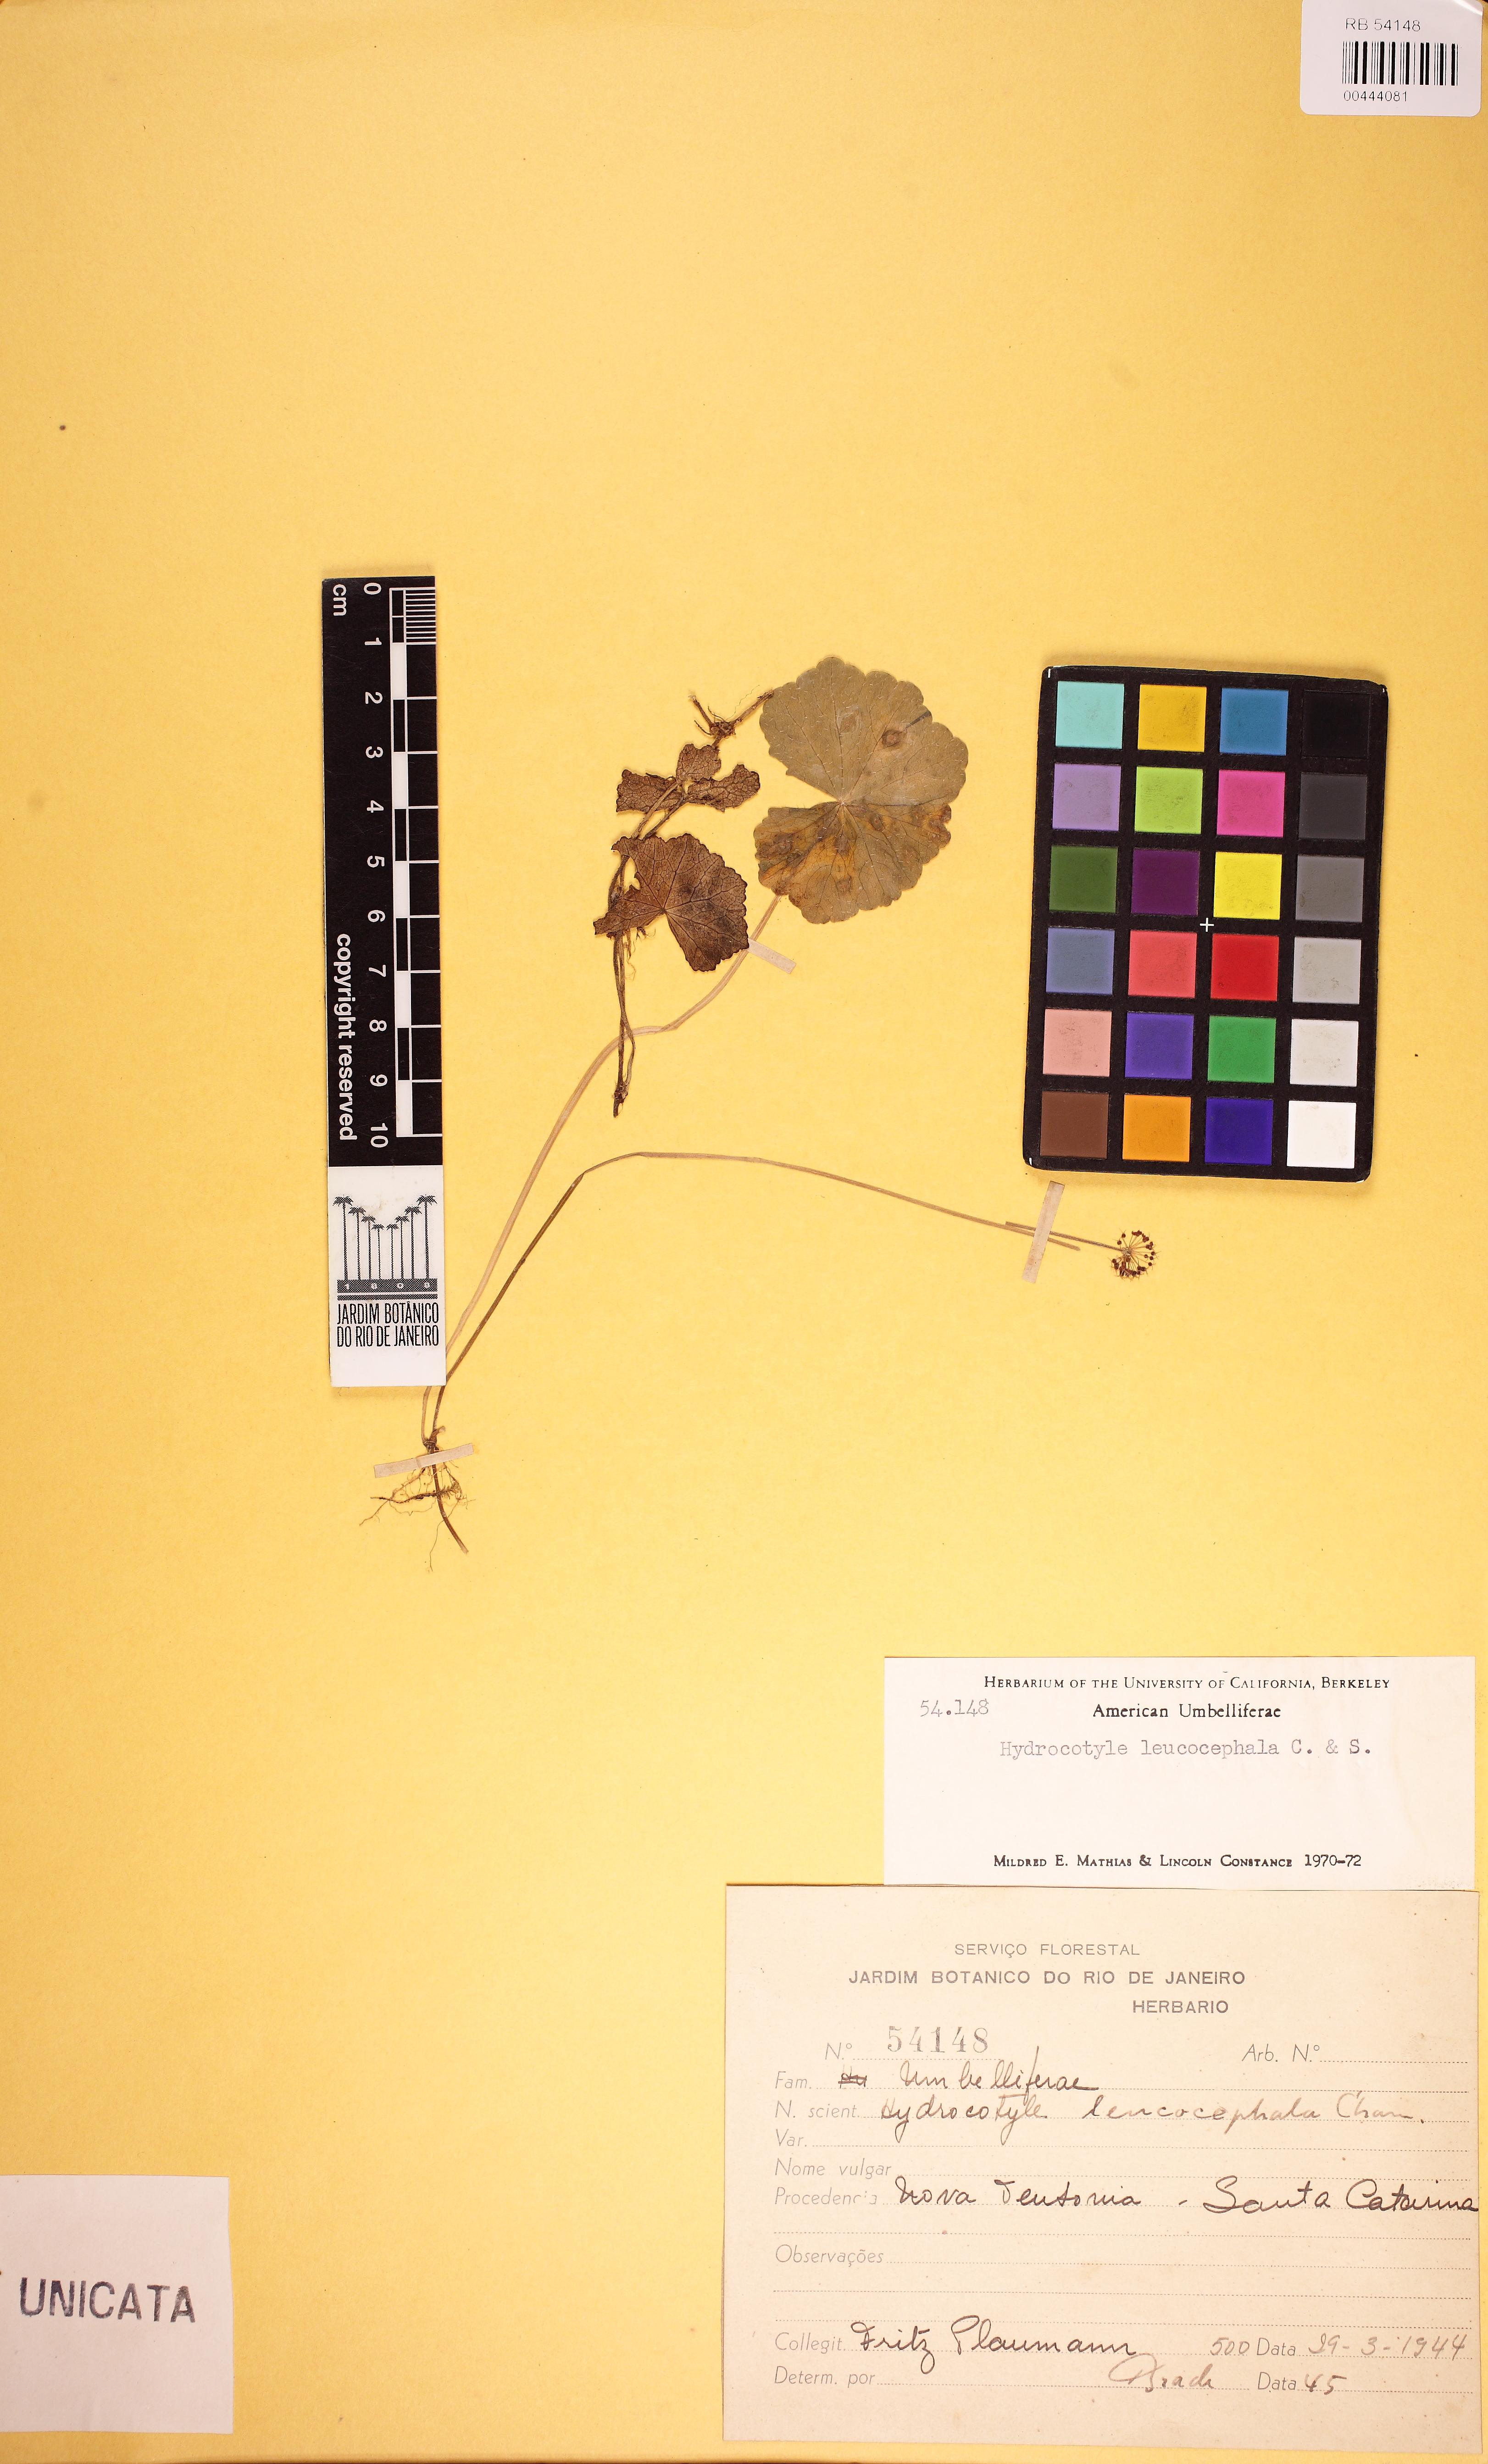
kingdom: Plantae
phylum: Tracheophyta
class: Magnoliopsida
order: Apiales
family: Araliaceae
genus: Hydrocotyle
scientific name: Hydrocotyle leucocephala
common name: Brazilian pennywort
